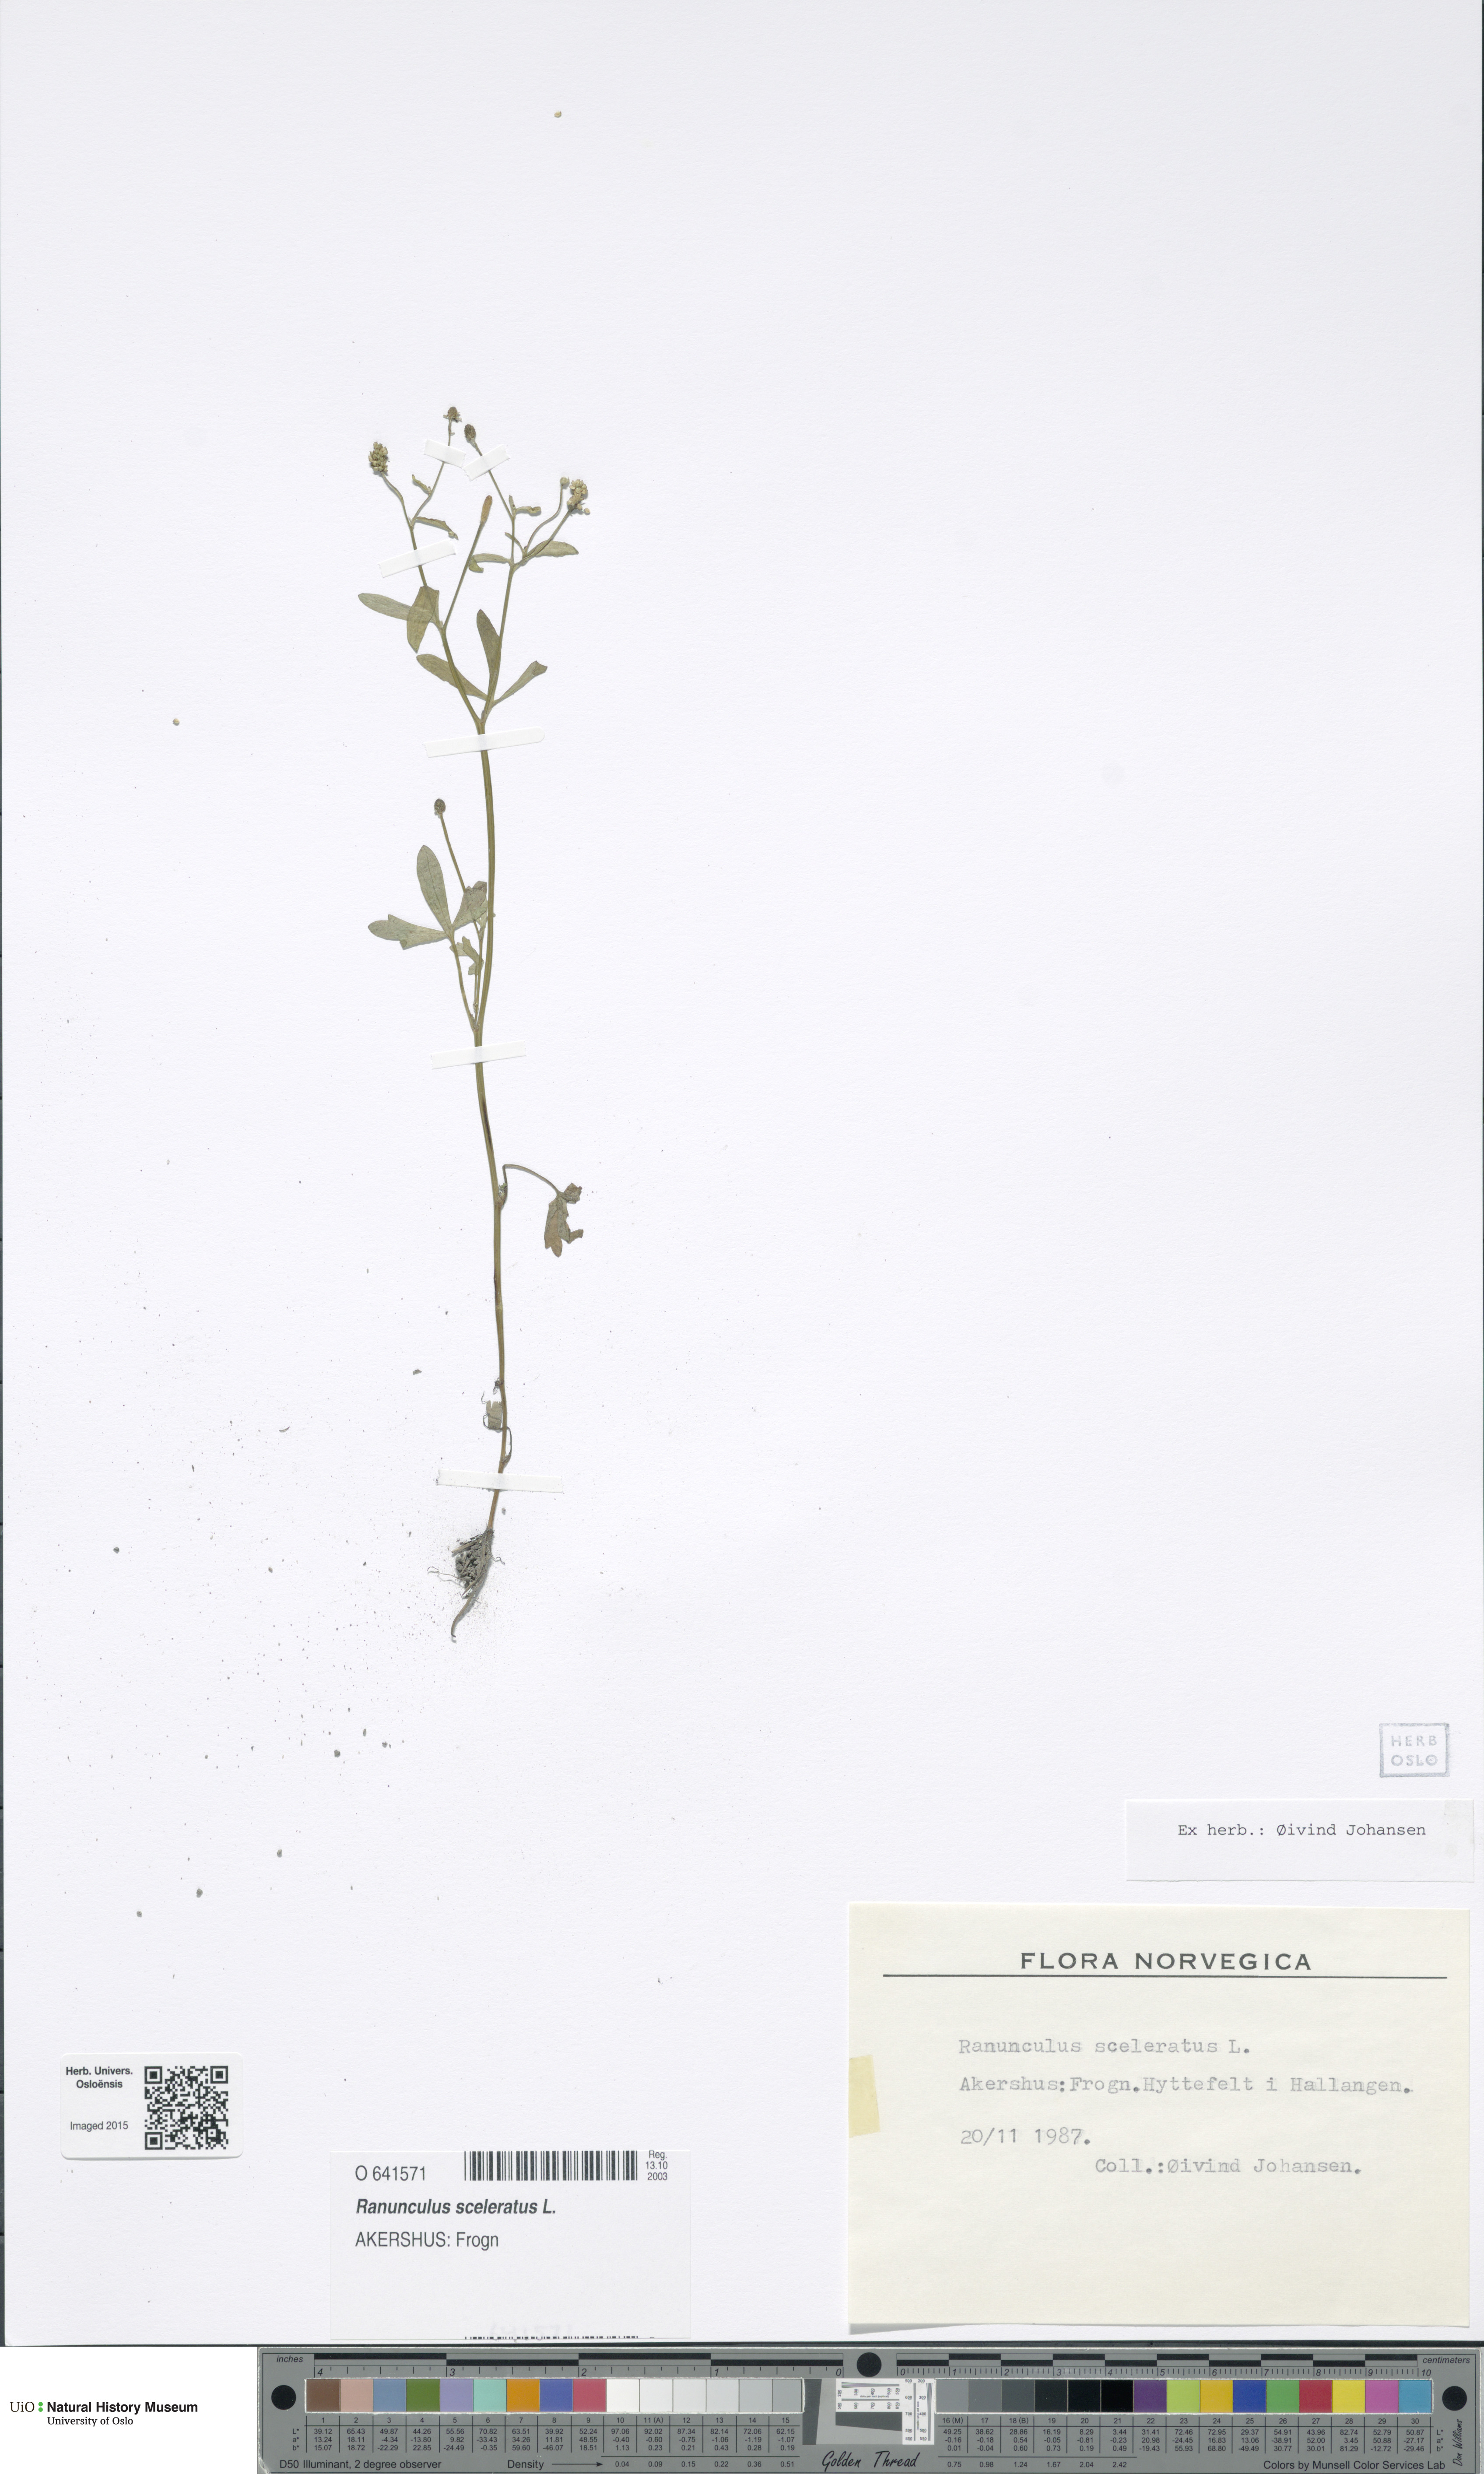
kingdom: Plantae
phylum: Tracheophyta
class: Magnoliopsida
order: Ranunculales
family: Ranunculaceae
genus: Ranunculus
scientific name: Ranunculus sceleratus
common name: Celery-leaved buttercup
